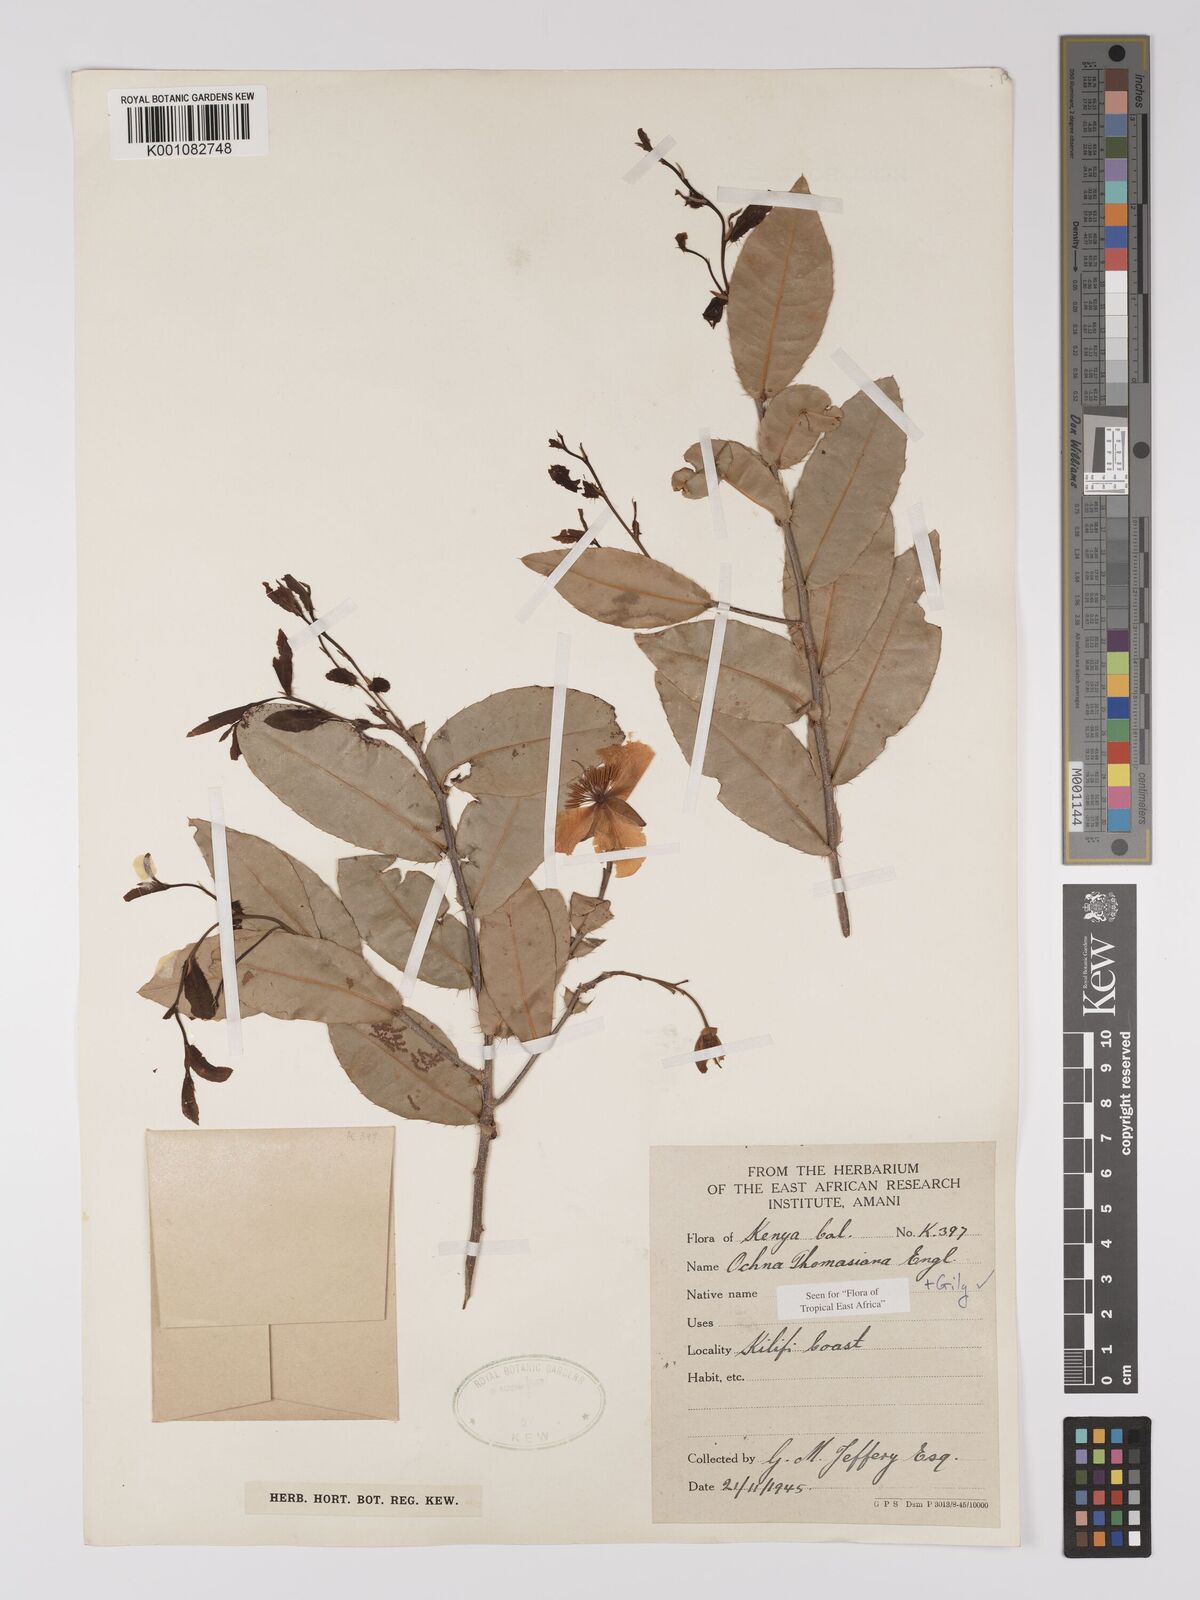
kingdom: Plantae
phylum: Tracheophyta
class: Magnoliopsida
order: Malpighiales
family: Ochnaceae
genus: Ochna
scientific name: Ochna thomasiana
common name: Thomas' bird's-eye bush
